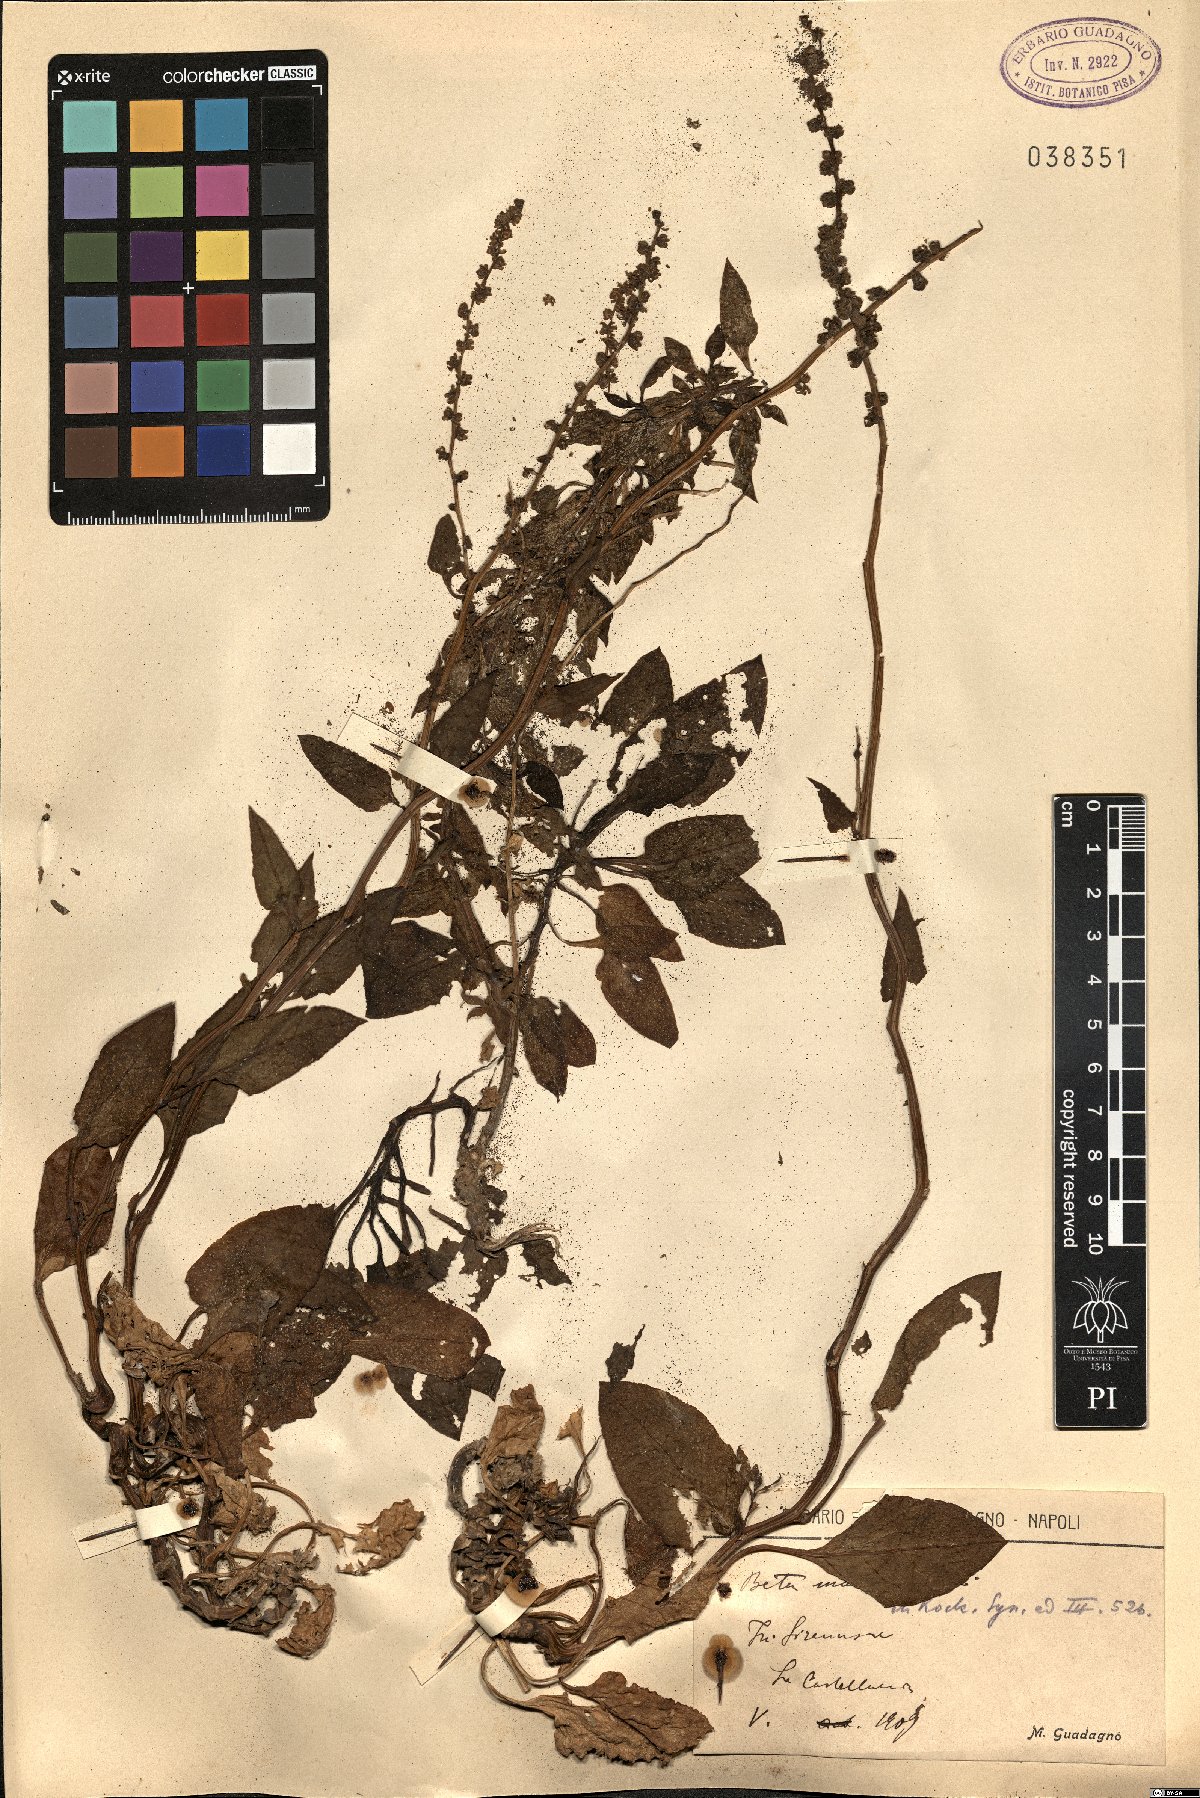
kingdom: Plantae
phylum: Tracheophyta
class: Magnoliopsida
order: Caryophyllales
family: Amaranthaceae
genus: Beta
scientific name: Beta maritima
